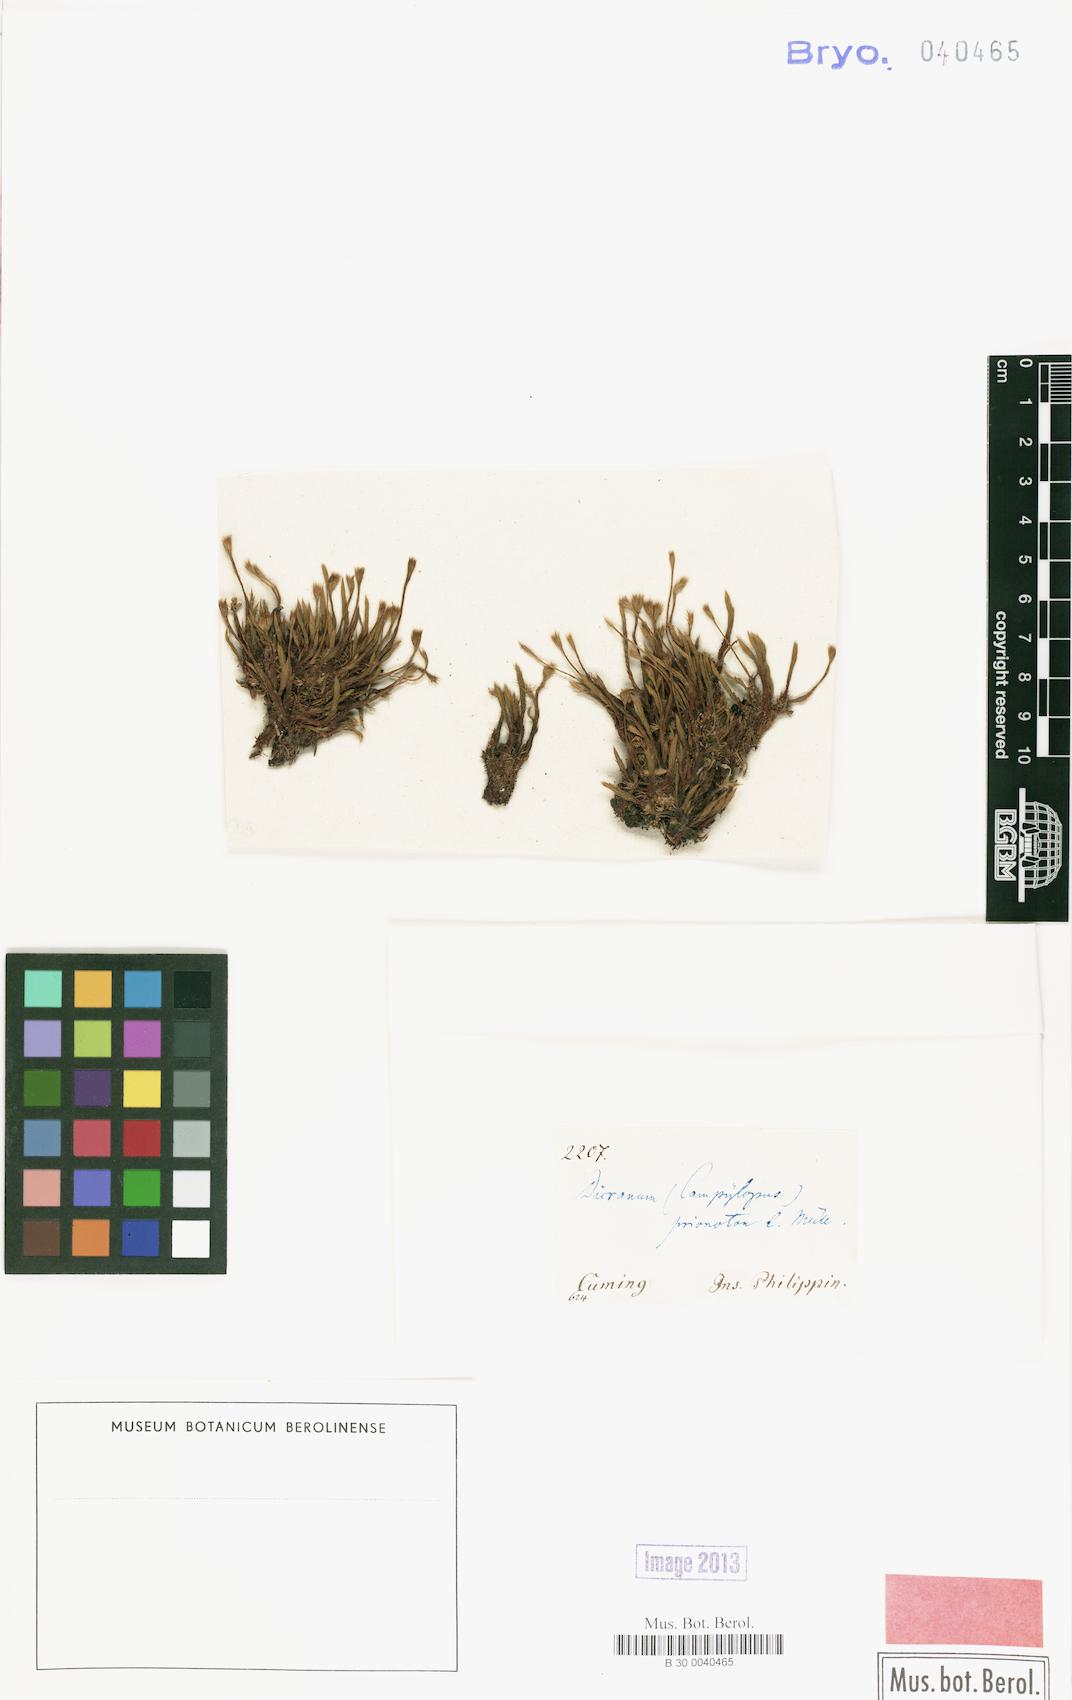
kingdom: Plantae
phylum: Bryophyta
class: Bryopsida
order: Dicranales
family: Dicranaceae
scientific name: Dicranaceae
